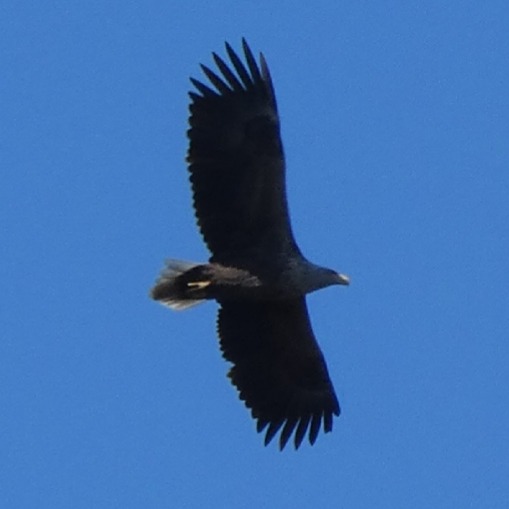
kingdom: Animalia
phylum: Chordata
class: Aves
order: Accipitriformes
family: Accipitridae
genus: Haliaeetus
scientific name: Haliaeetus albicilla
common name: Havørn
